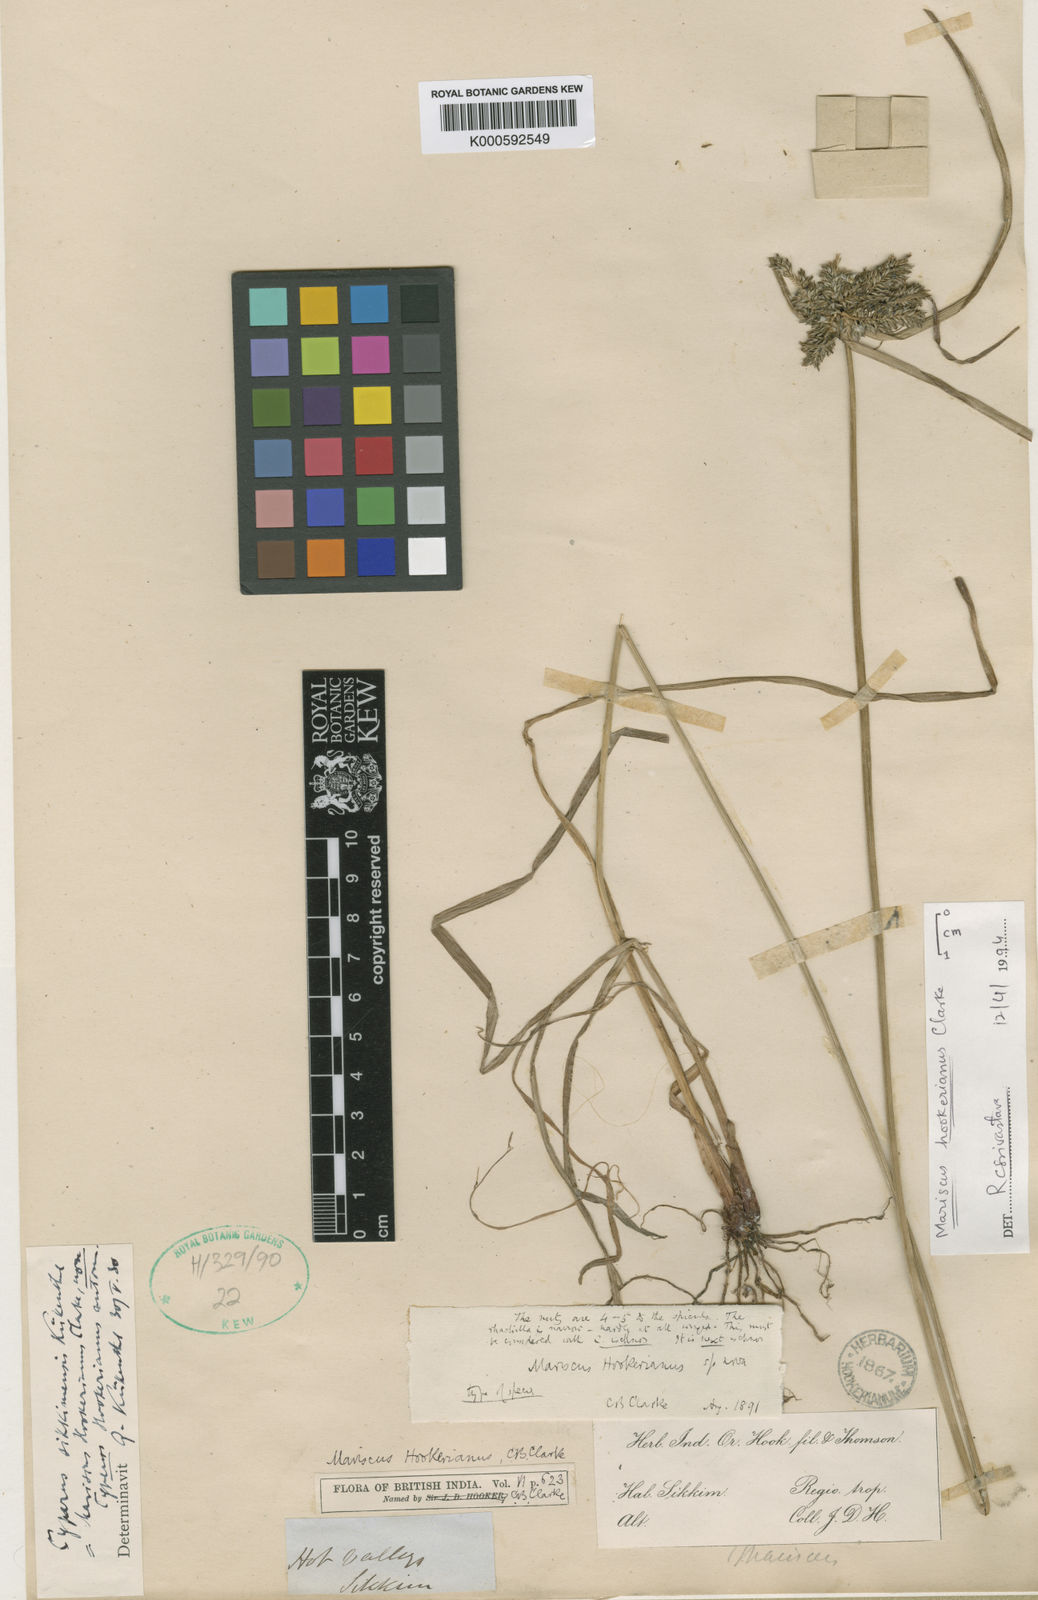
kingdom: Plantae
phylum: Tracheophyta
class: Liliopsida
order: Poales
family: Cyperaceae
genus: Cyperus
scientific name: Cyperus
